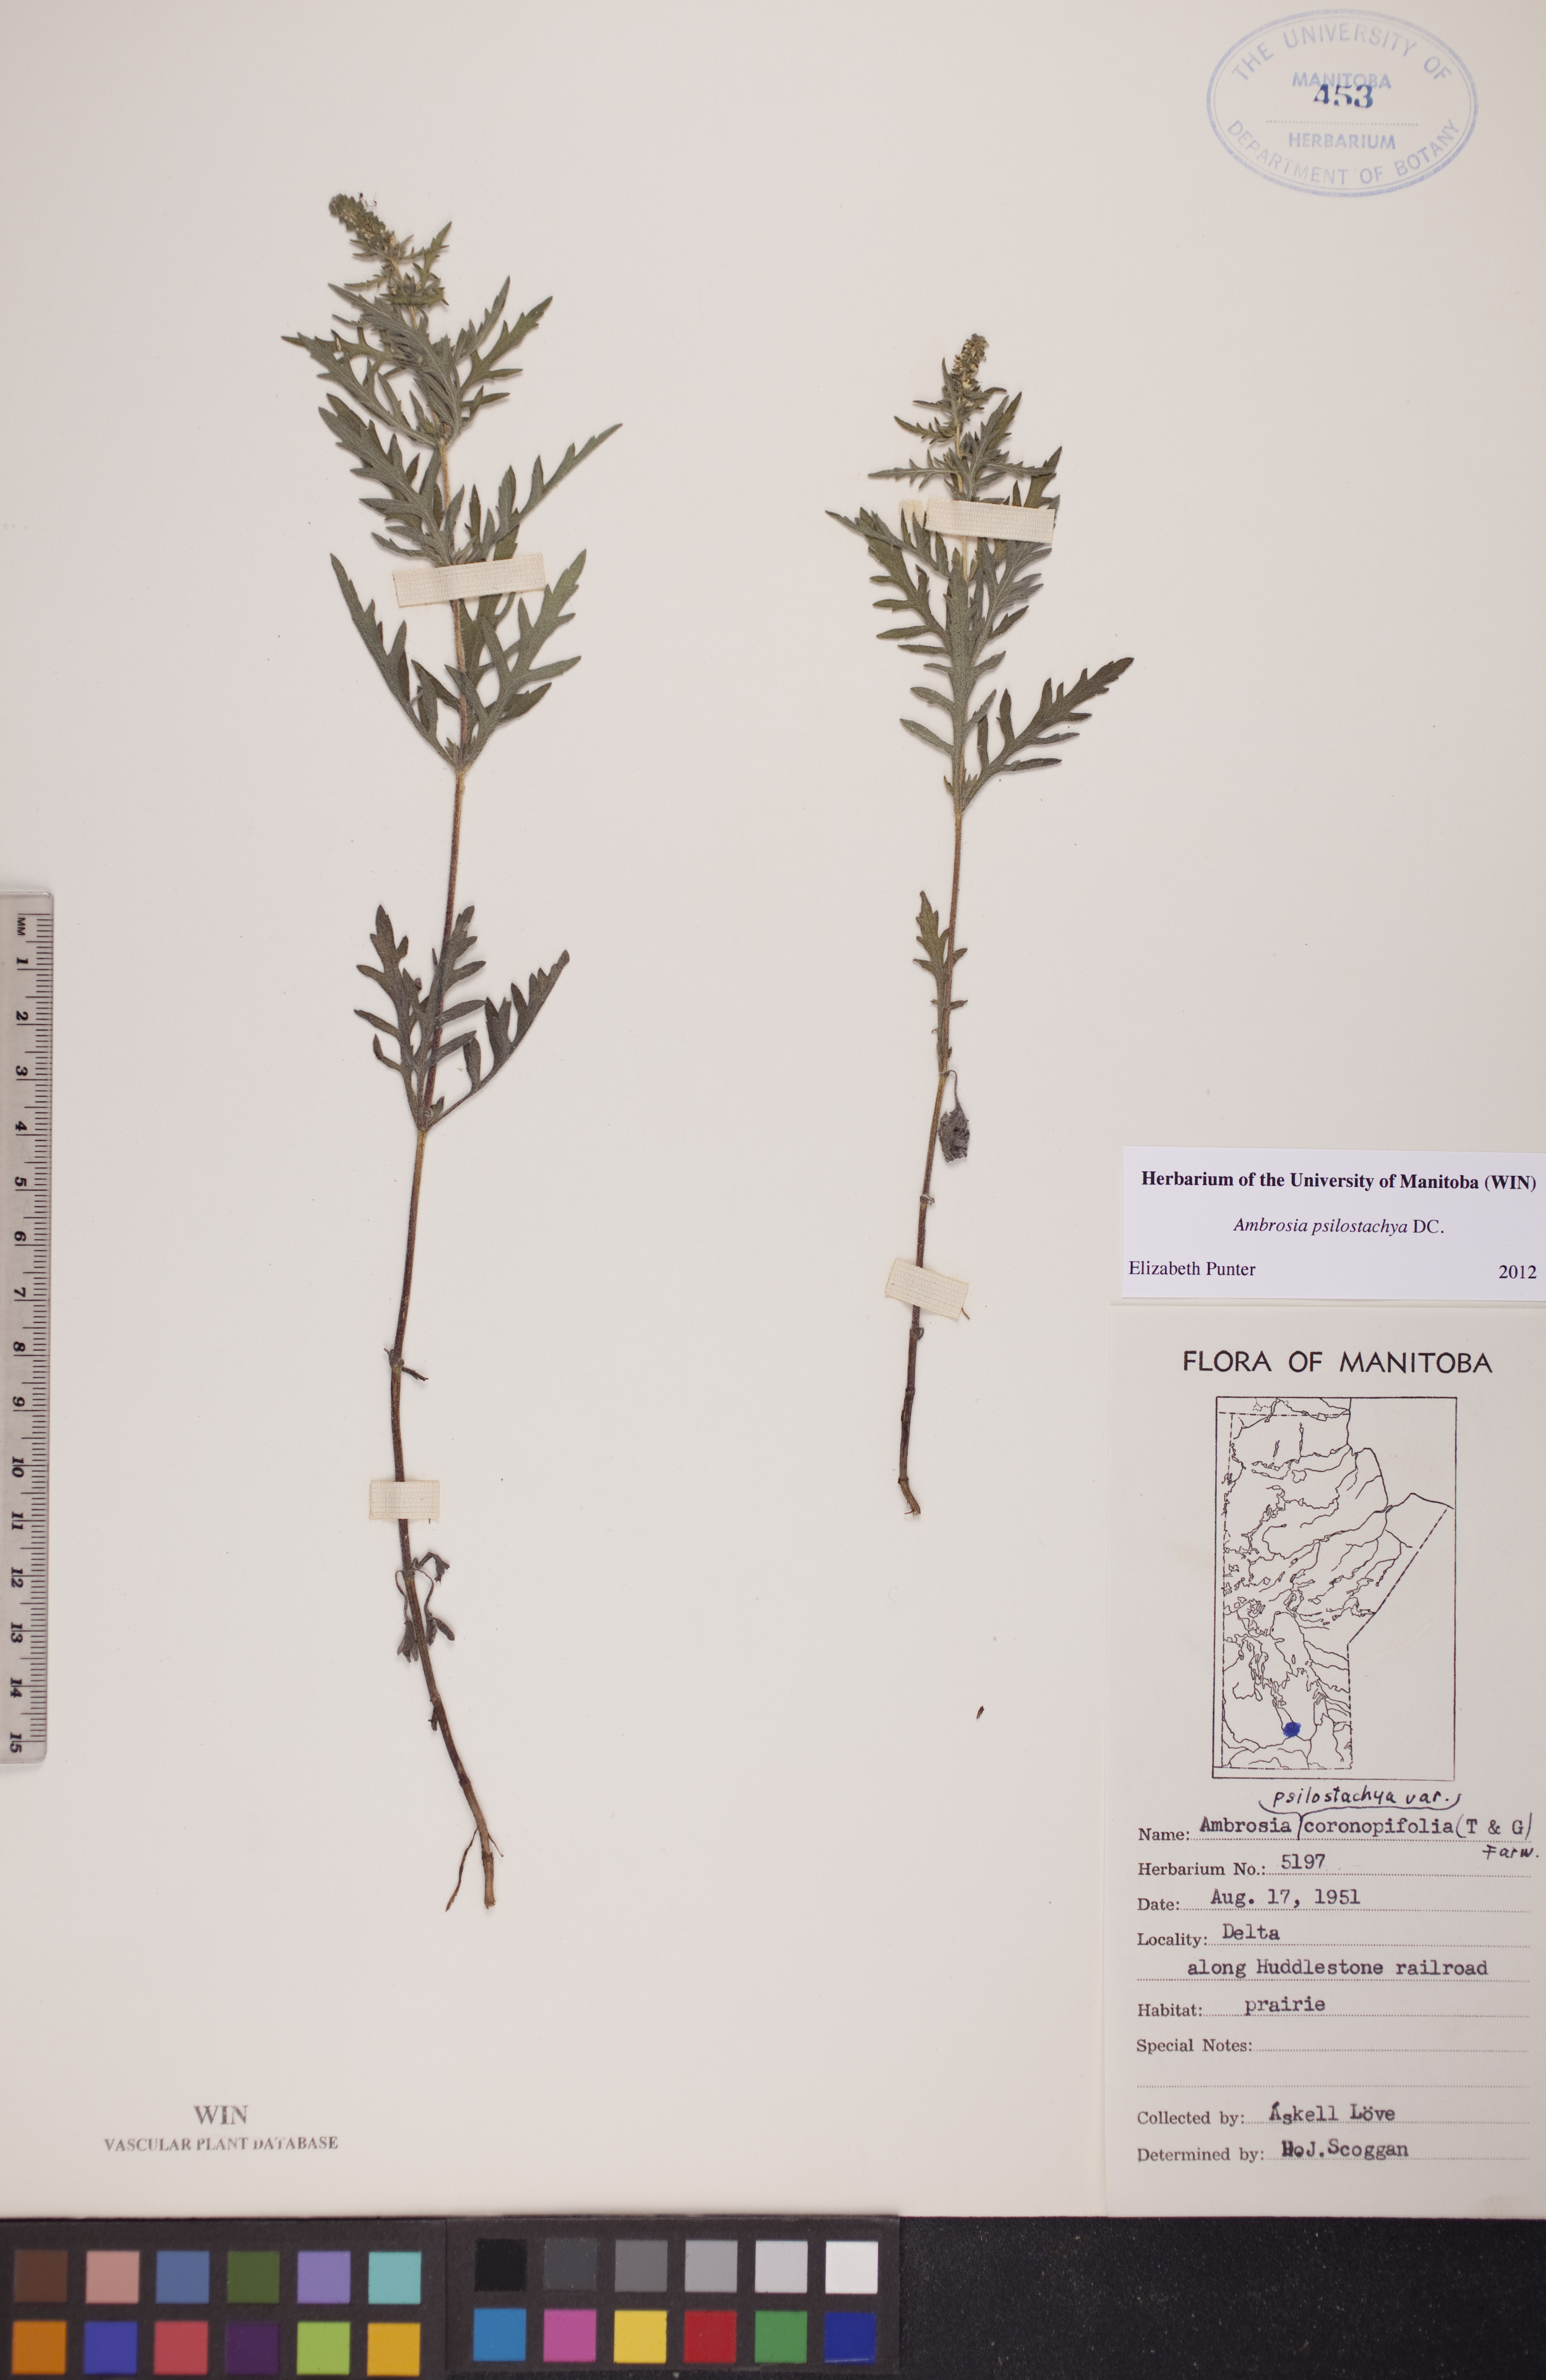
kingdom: Plantae
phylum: Tracheophyta
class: Magnoliopsida
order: Asterales
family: Asteraceae
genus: Ambrosia
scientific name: Ambrosia psilostachya
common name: Perennial ragweed
